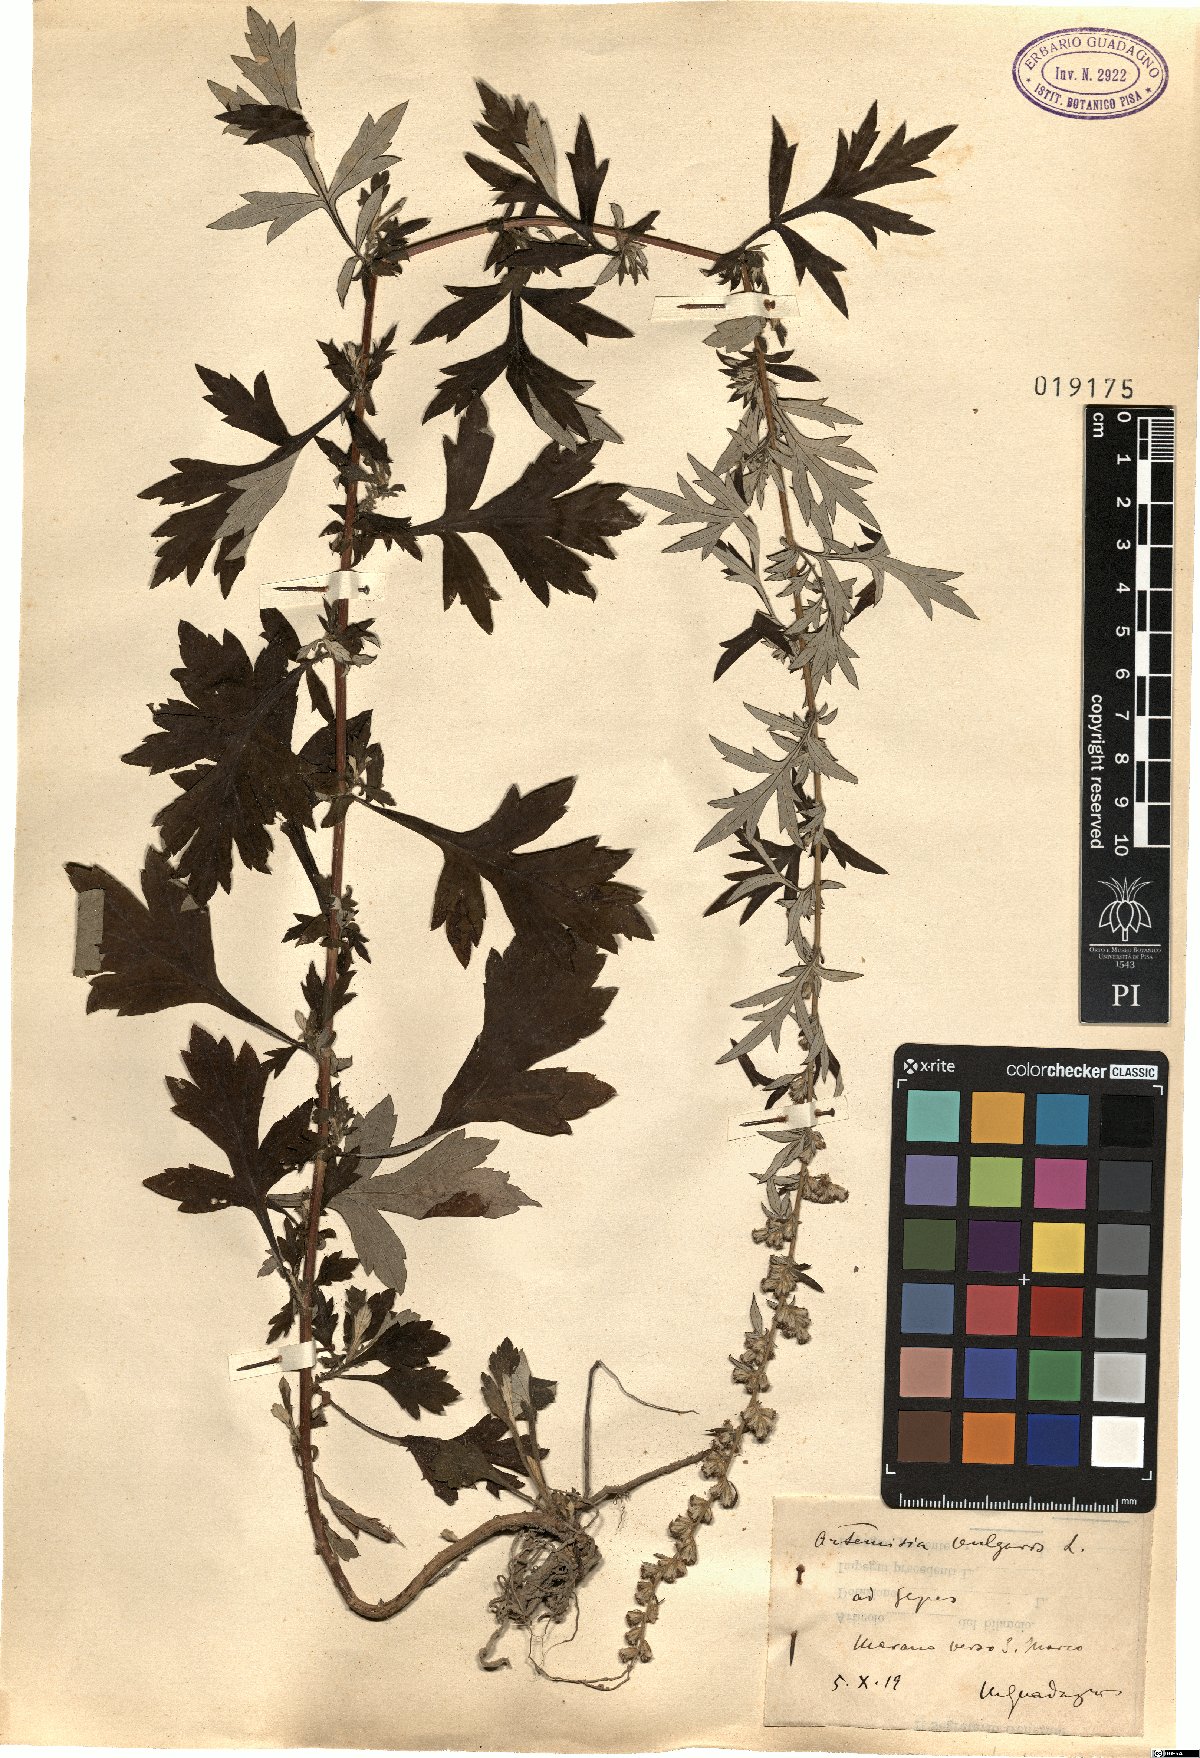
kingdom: Plantae
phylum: Tracheophyta
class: Magnoliopsida
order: Asterales
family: Asteraceae
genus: Artemisia
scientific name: Artemisia vulgaris
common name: Mugwort
